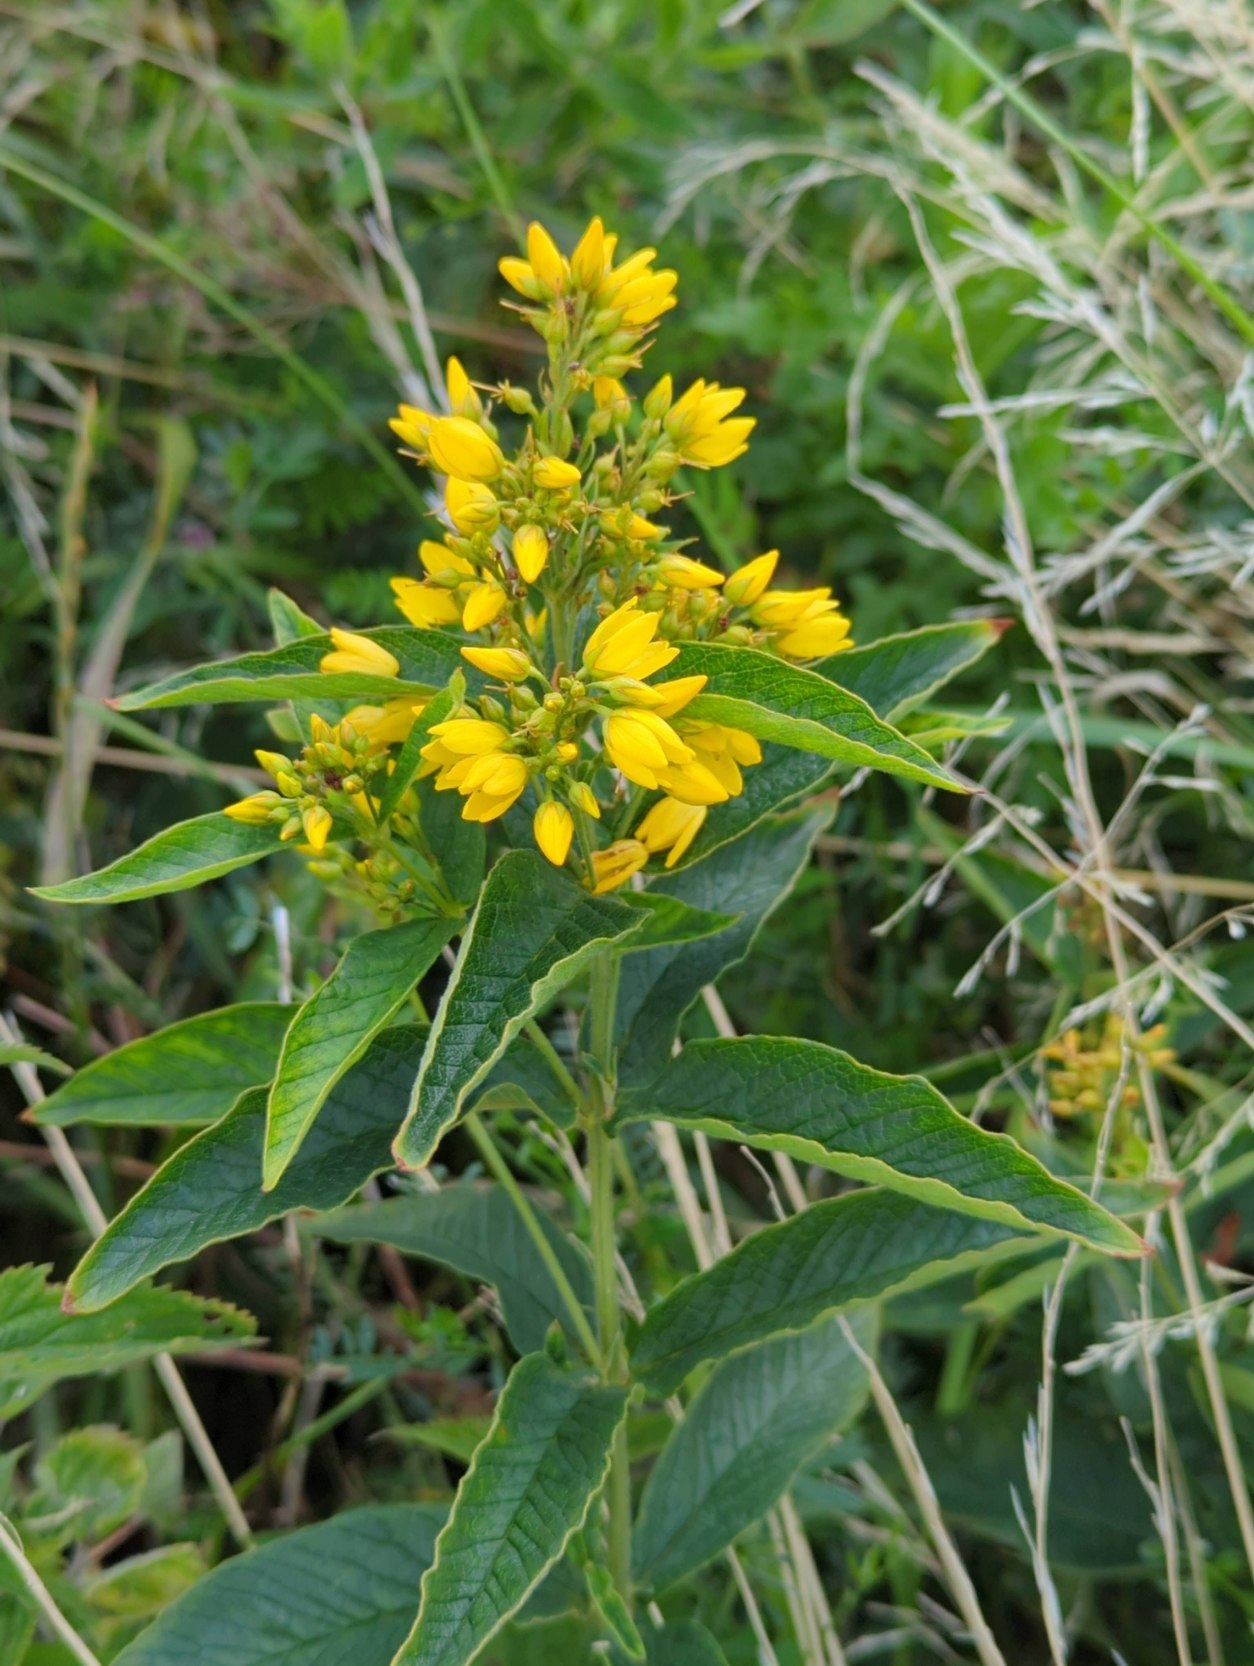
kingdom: Plantae
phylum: Tracheophyta
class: Magnoliopsida
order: Ericales
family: Primulaceae
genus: Lysimachia
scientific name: Lysimachia vulgaris
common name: Almindelig fredløs
